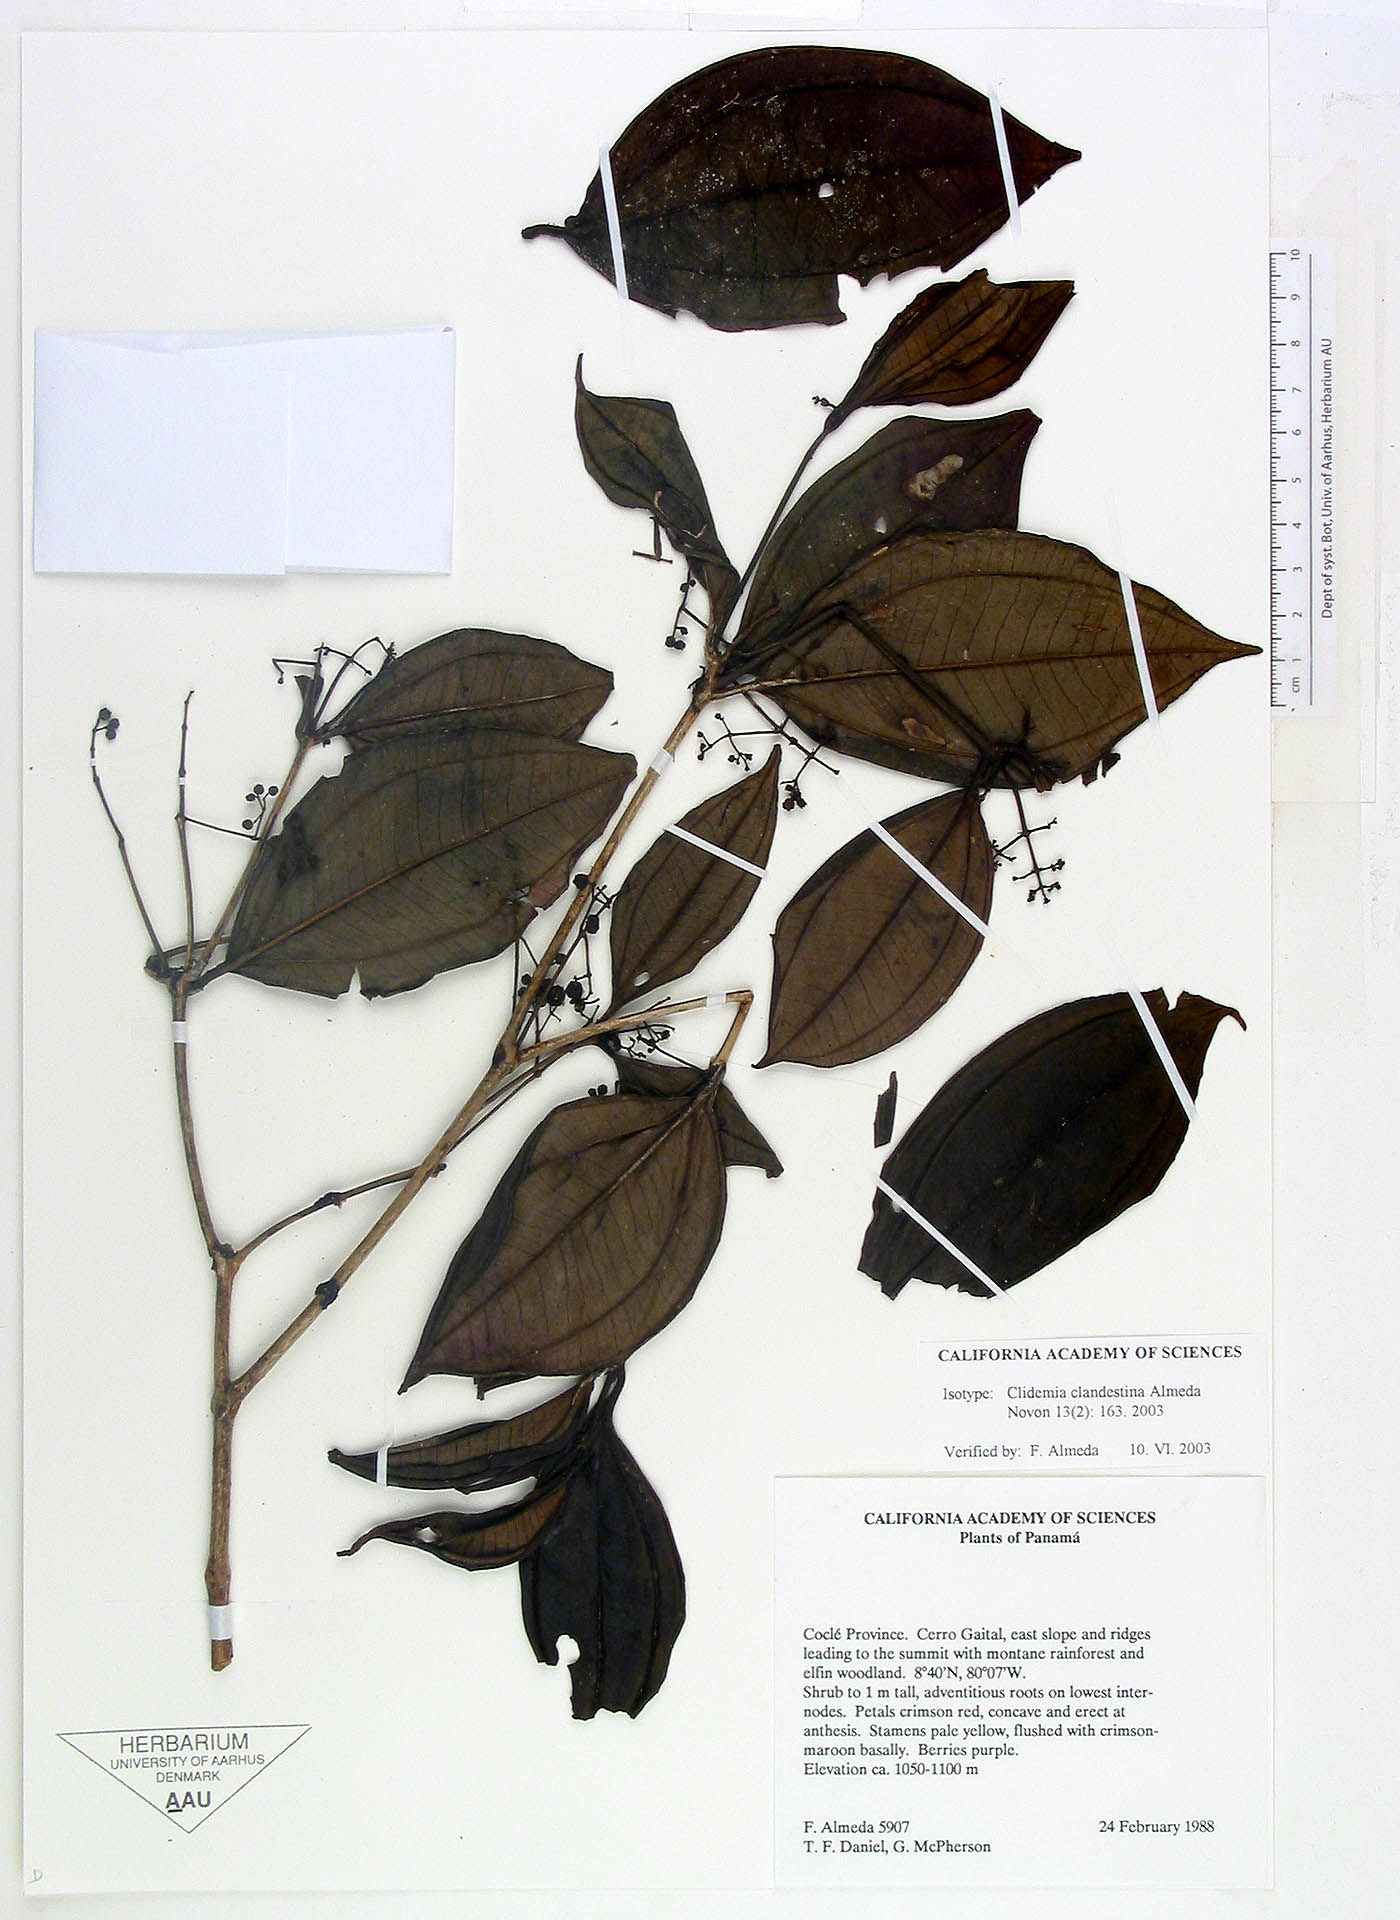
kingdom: Plantae
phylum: Tracheophyta
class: Magnoliopsida
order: Myrtales
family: Melastomataceae
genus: Miconia
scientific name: Miconia clandestina
